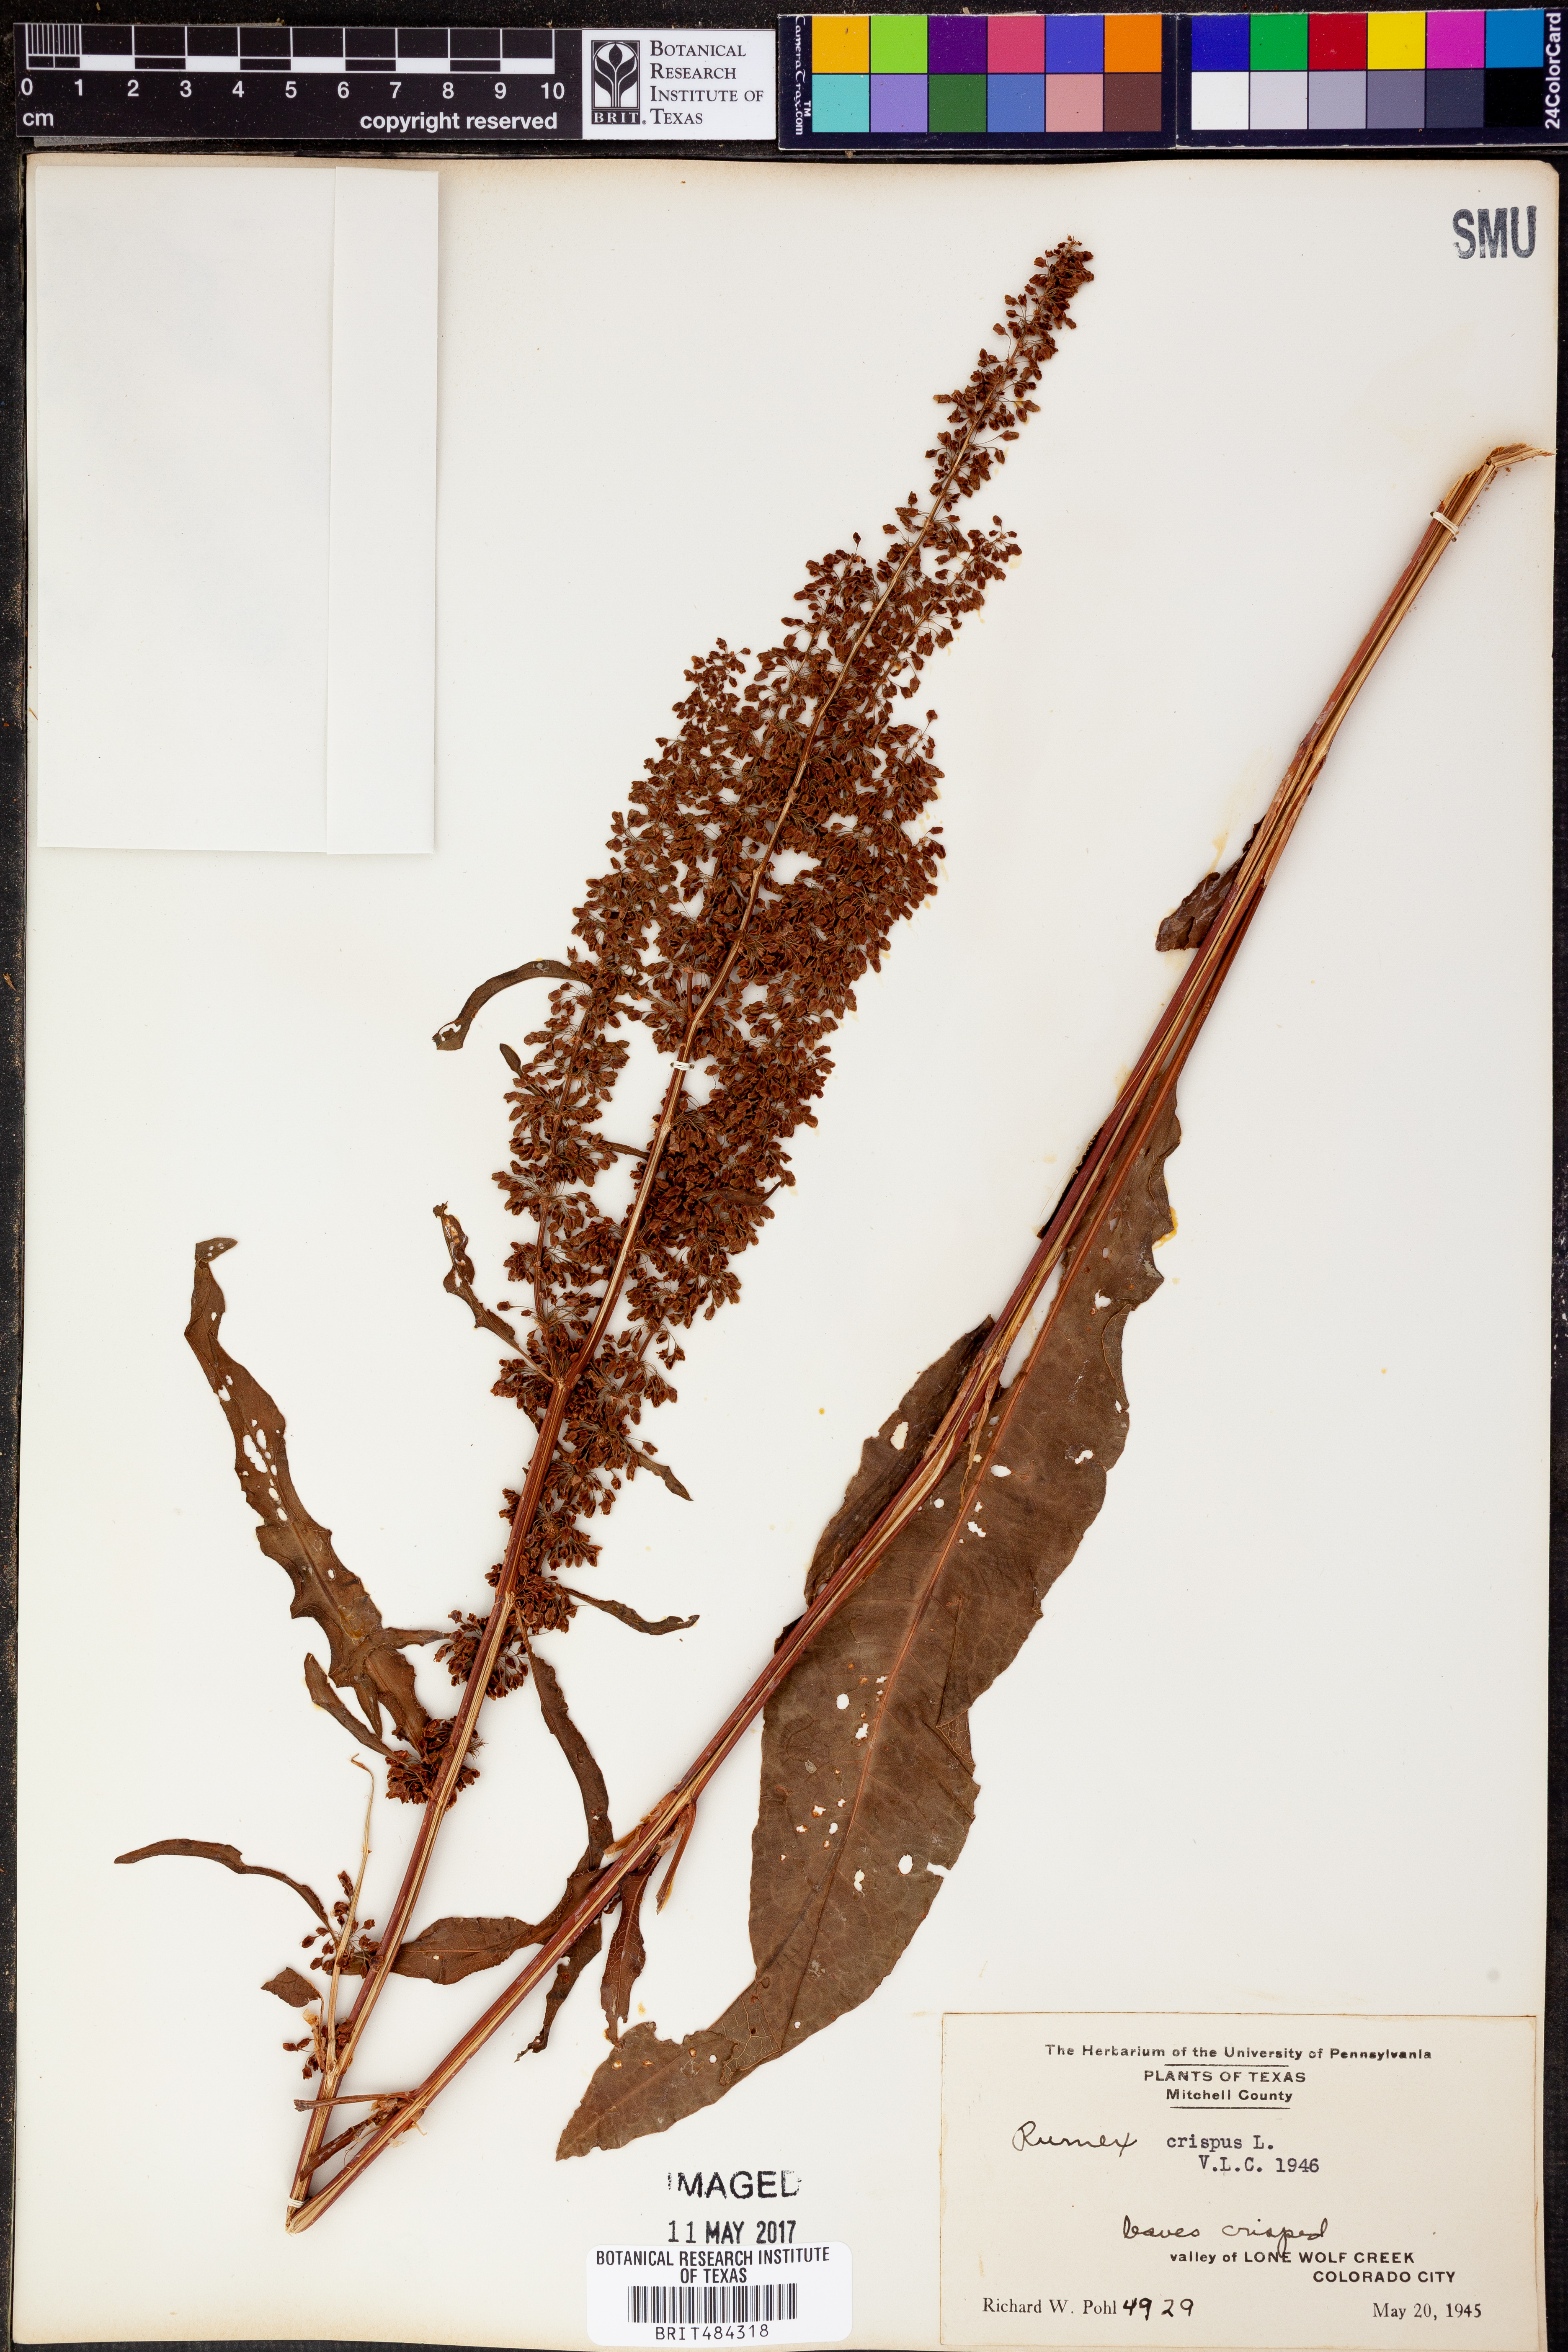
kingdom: Plantae
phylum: Tracheophyta
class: Magnoliopsida
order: Caryophyllales
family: Polygonaceae
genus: Rumex
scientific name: Rumex crispus
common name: Curled dock
